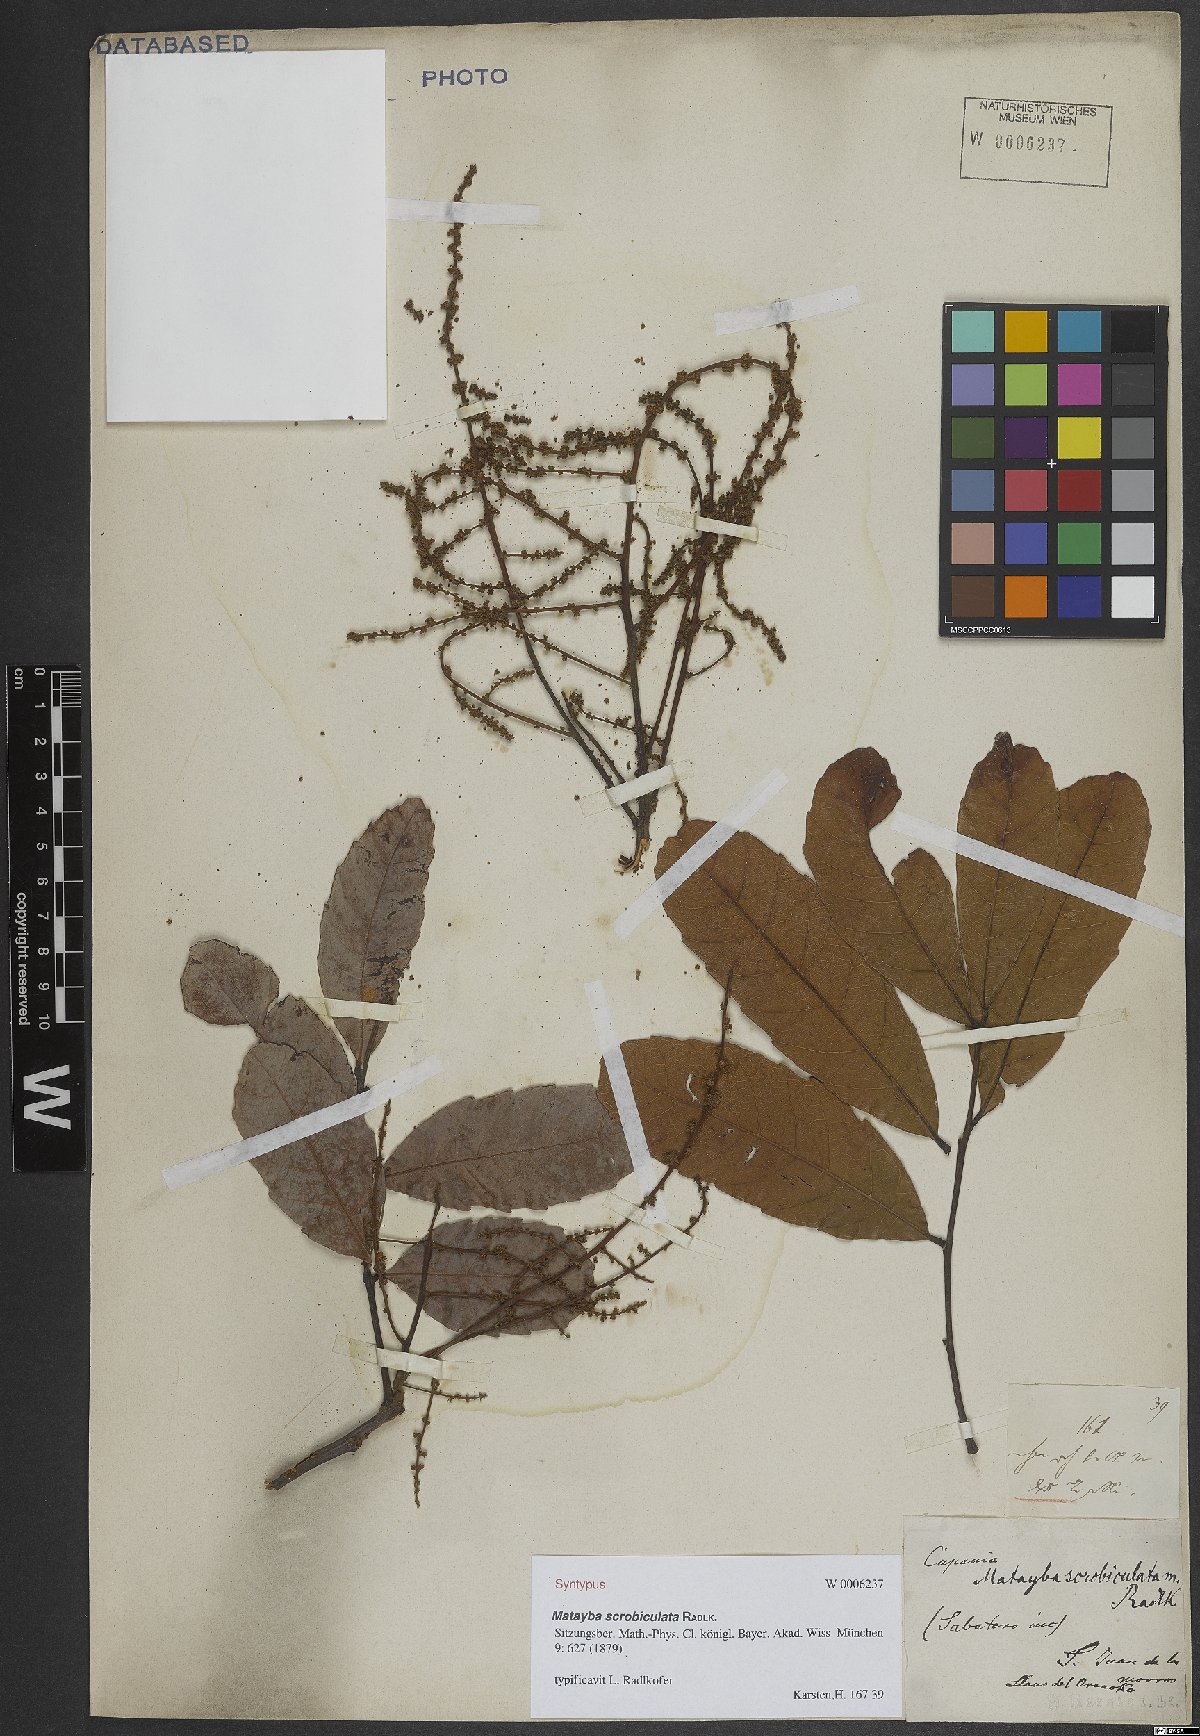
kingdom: Plantae
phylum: Tracheophyta
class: Magnoliopsida
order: Sapindales
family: Sapindaceae
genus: Matayba
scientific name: Matayba scrobiculata
